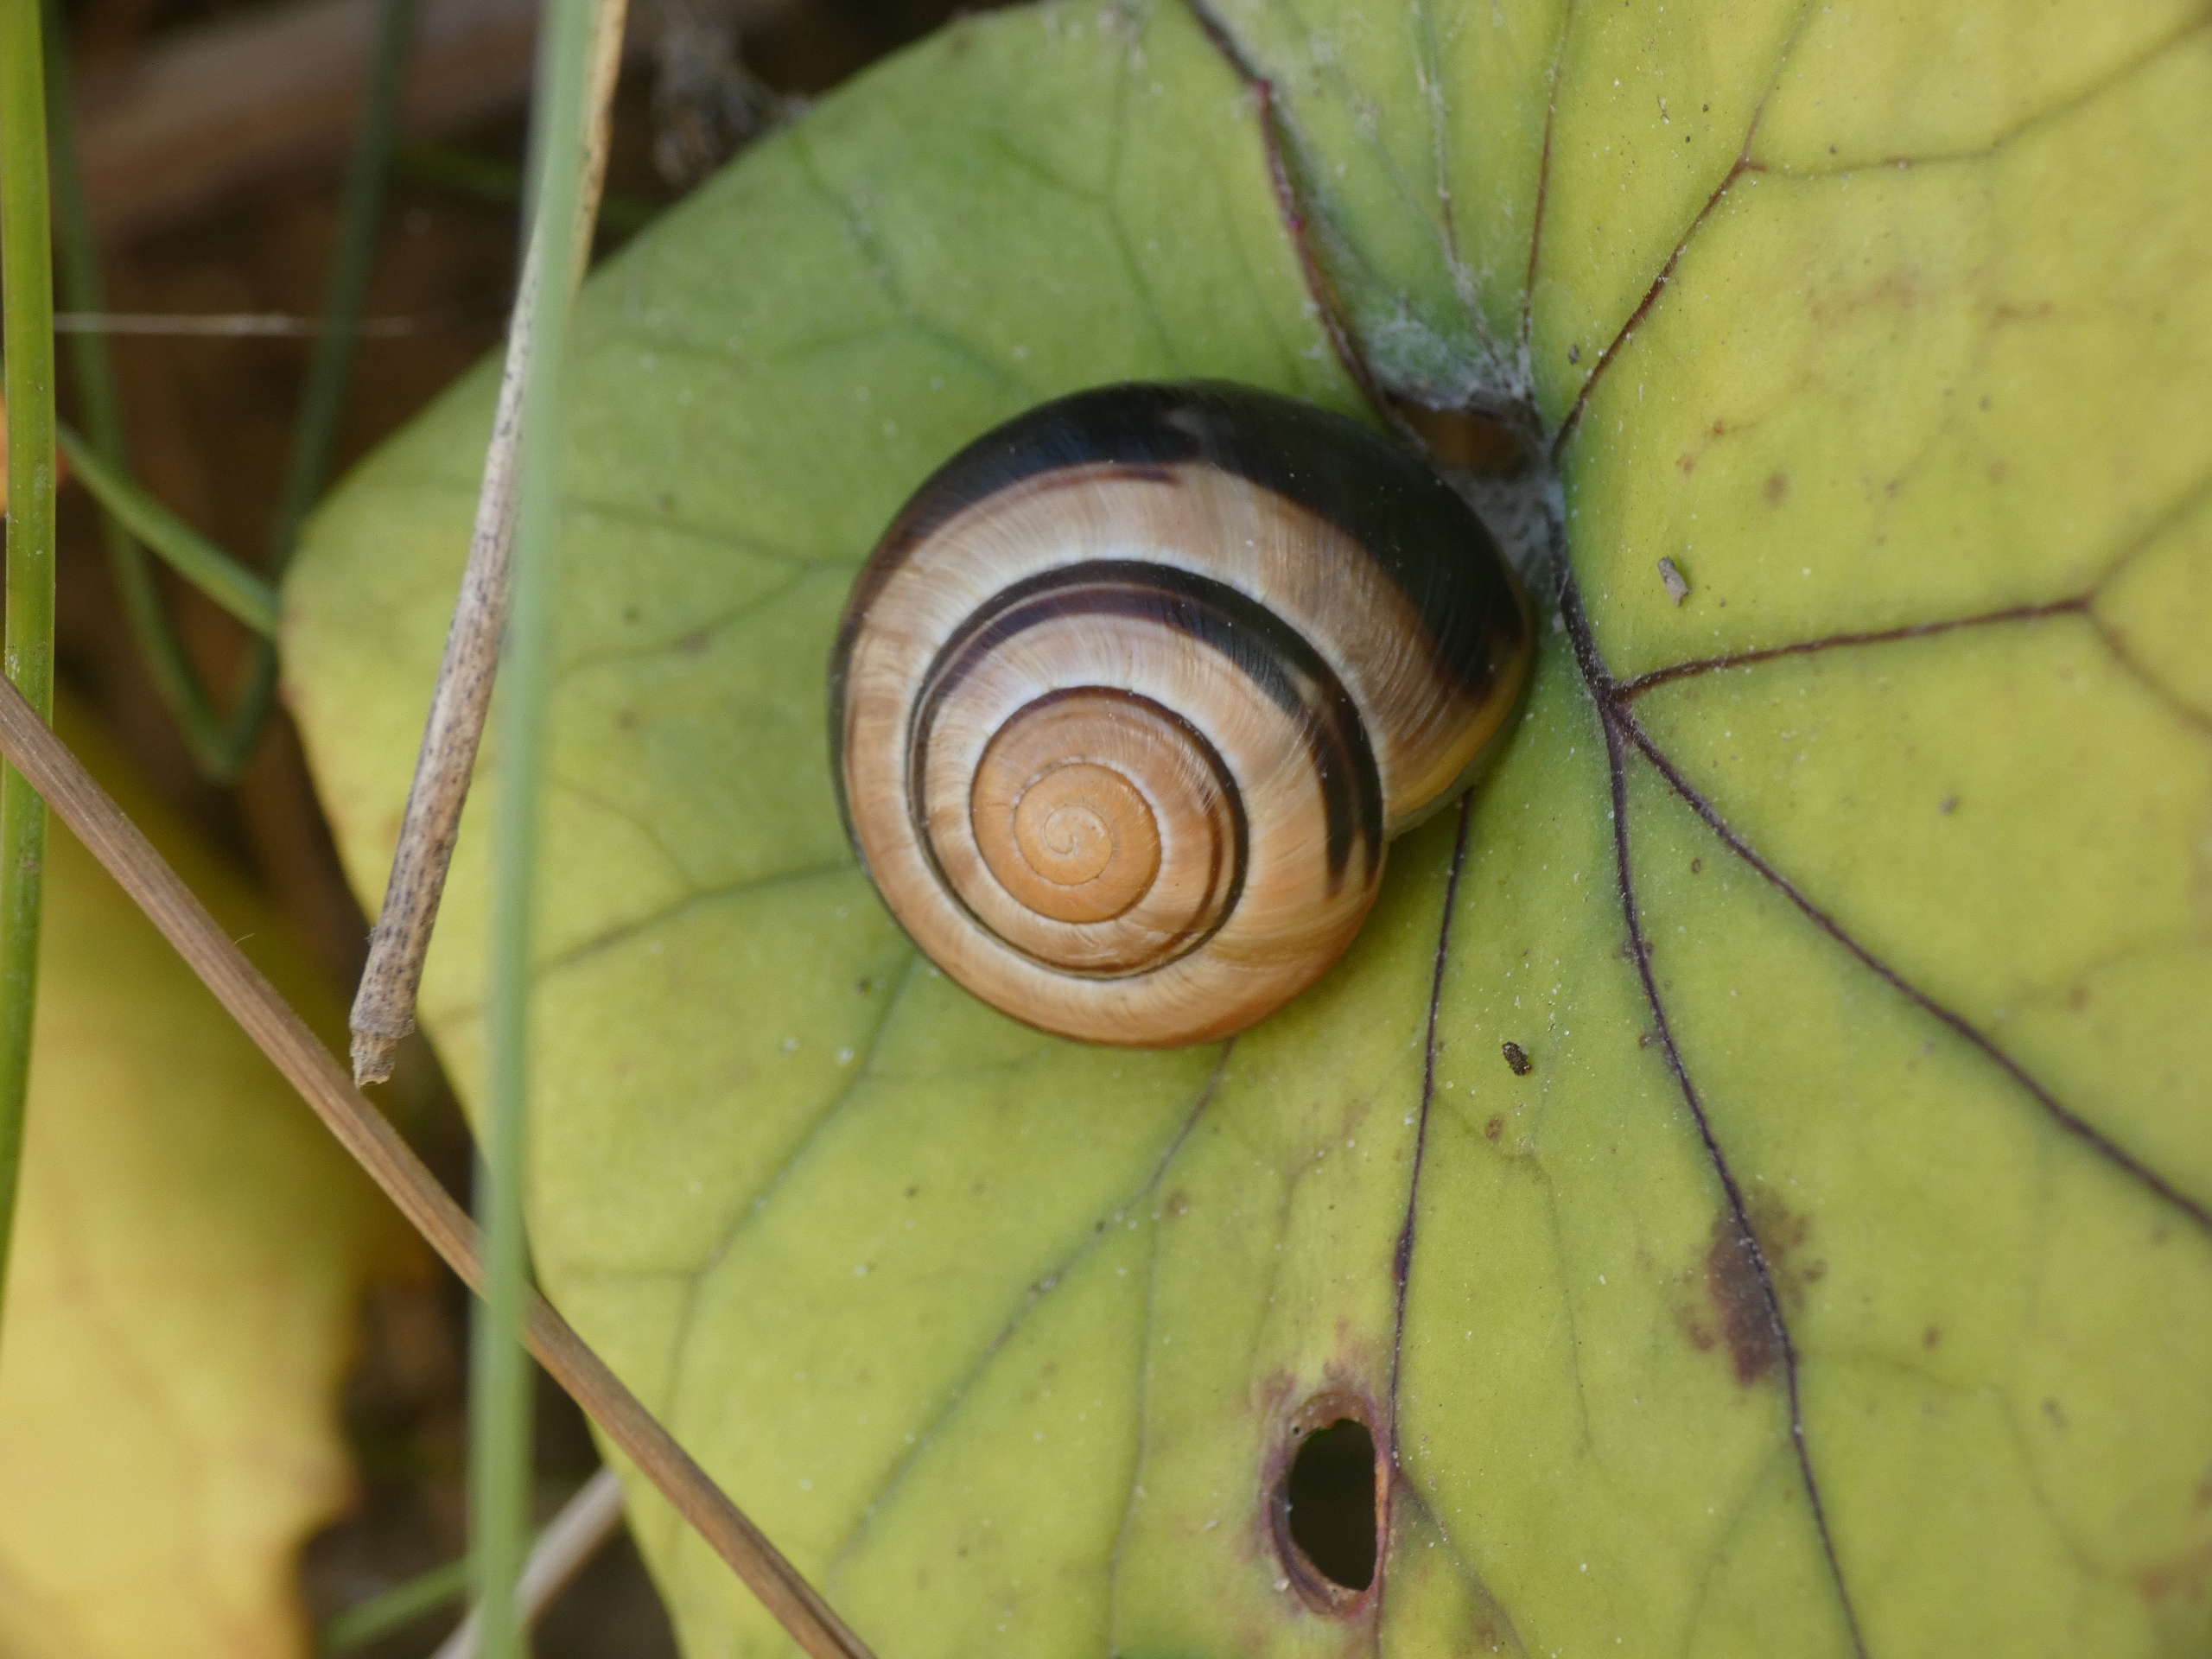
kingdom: Animalia
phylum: Mollusca
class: Gastropoda
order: Stylommatophora
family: Helicidae
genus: Cepaea
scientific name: Cepaea hortensis
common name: Havesnegl
